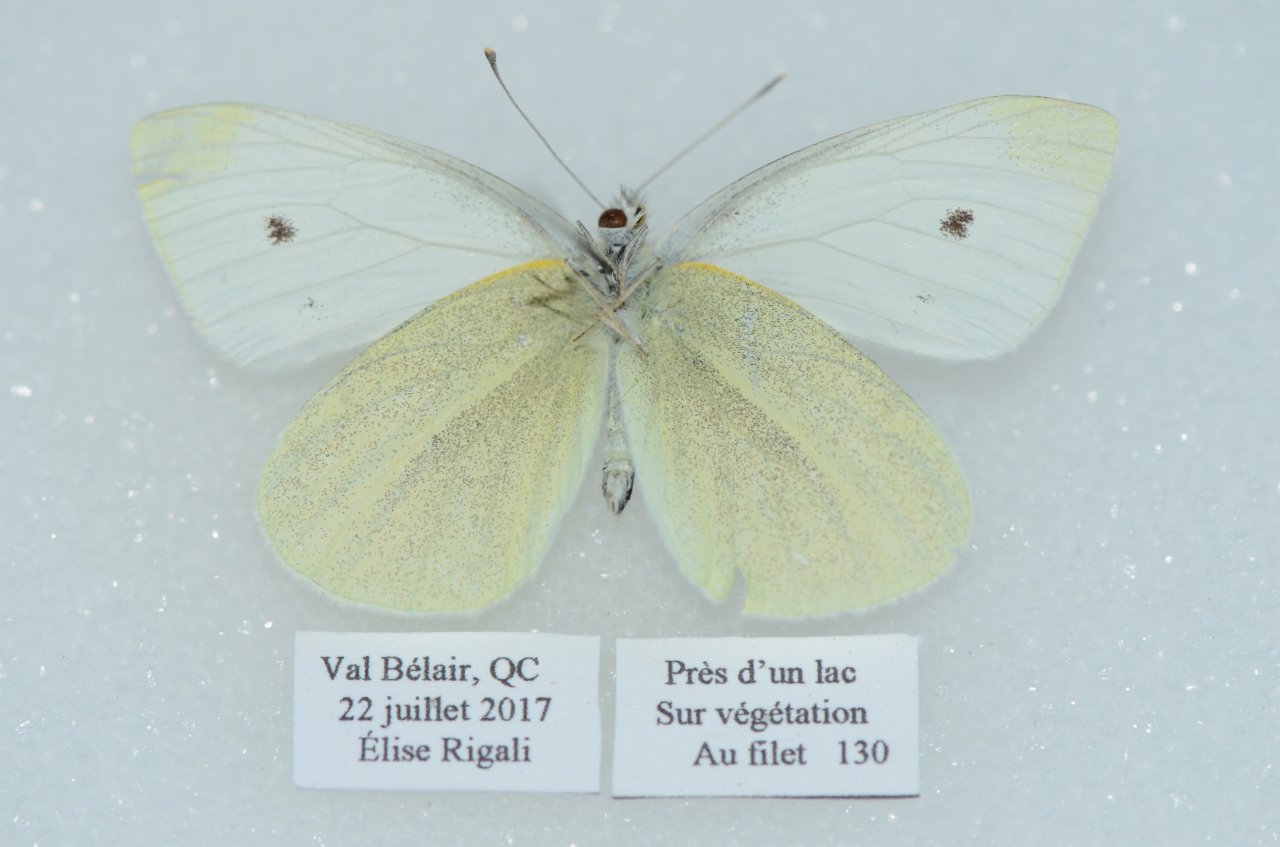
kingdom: Animalia
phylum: Arthropoda
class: Insecta
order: Lepidoptera
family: Pieridae
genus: Pieris
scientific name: Pieris rapae
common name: Cabbage White
